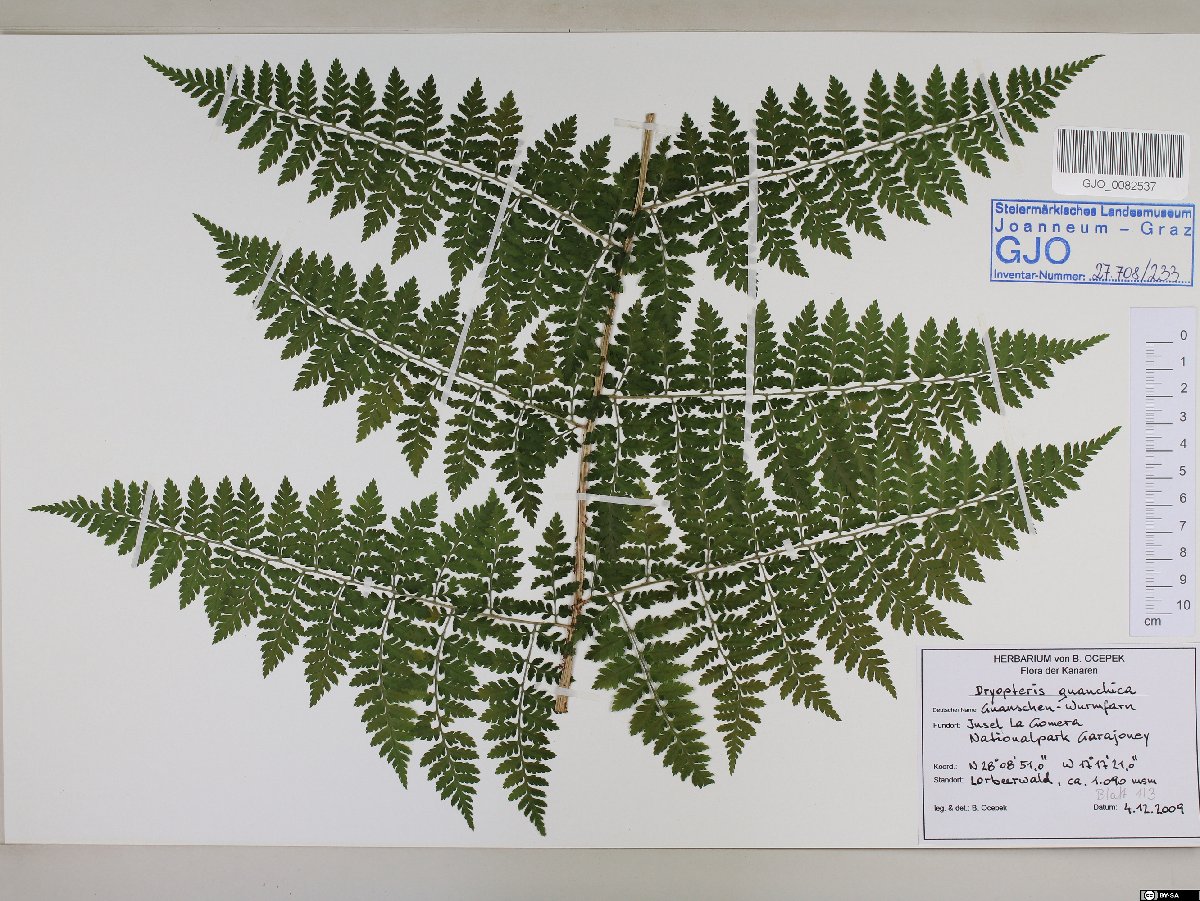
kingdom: Plantae
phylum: Tracheophyta
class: Polypodiopsida
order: Polypodiales
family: Dryopteridaceae
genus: Dryopteris
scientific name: Dryopteris guanchica
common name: Guanche woodfern
